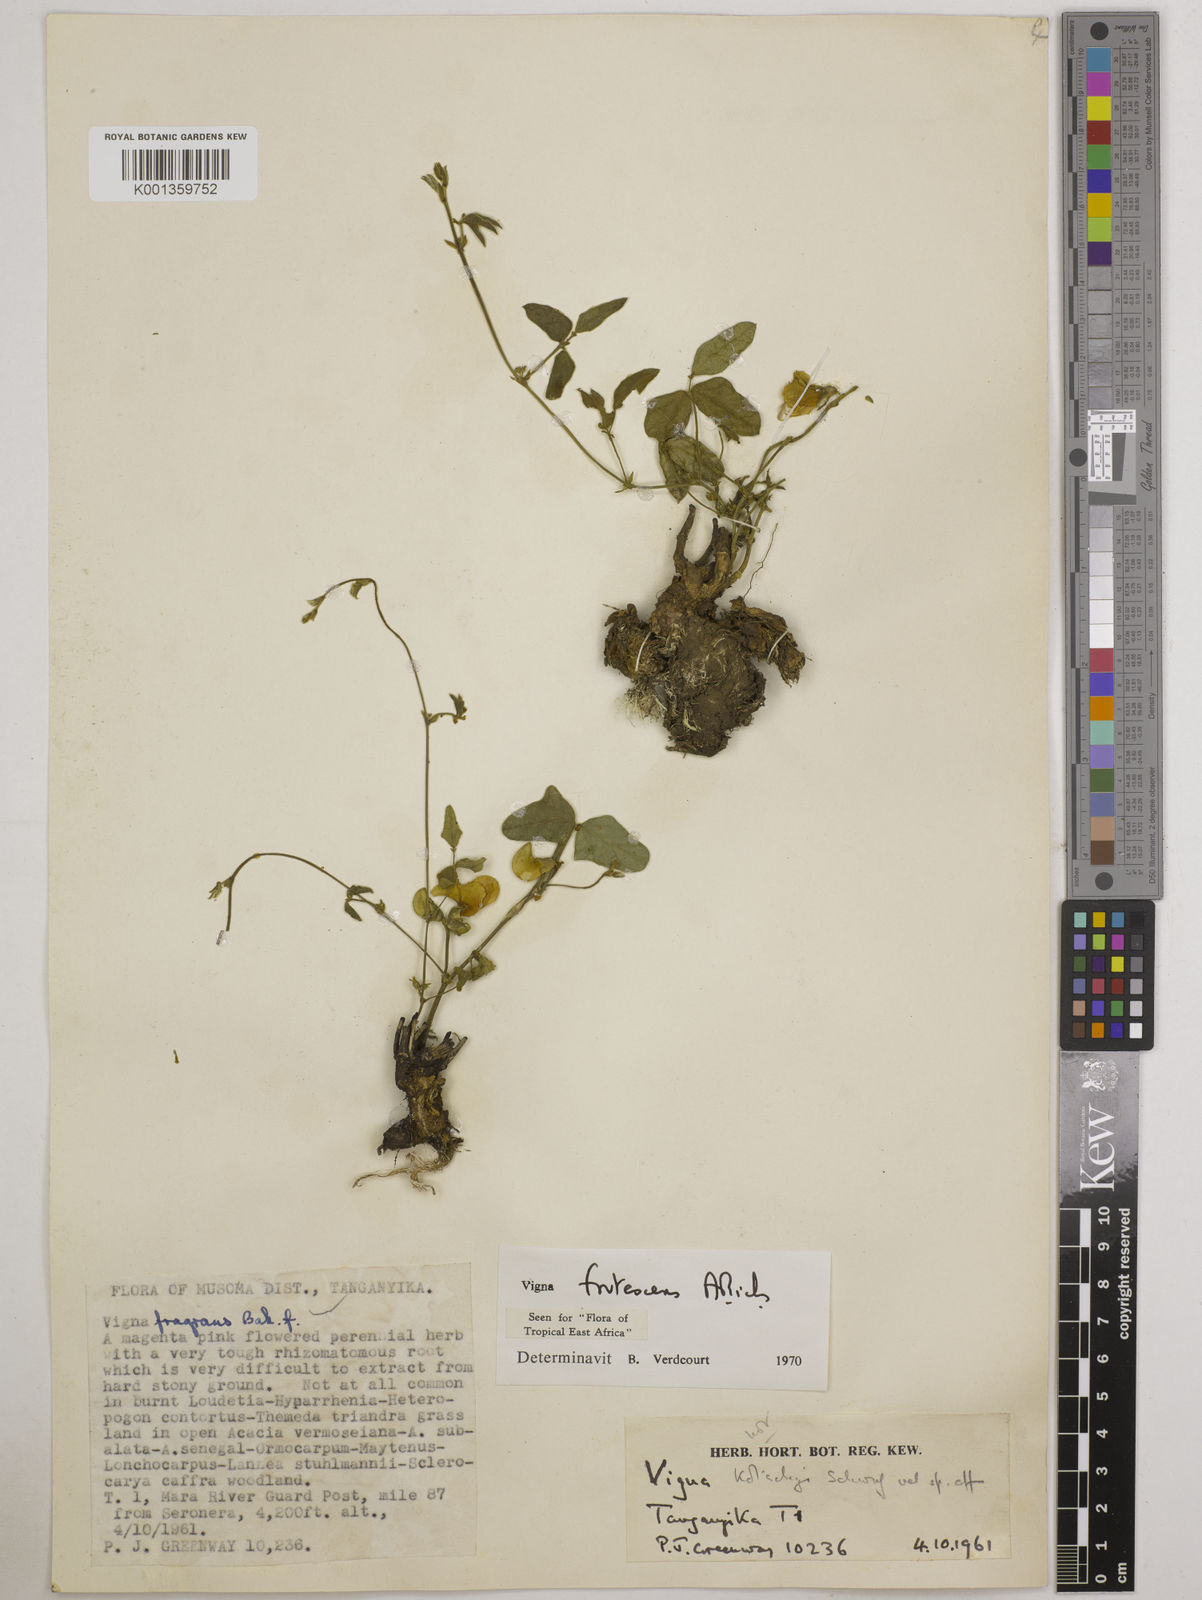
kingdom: Plantae
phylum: Tracheophyta
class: Magnoliopsida
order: Fabales
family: Fabaceae
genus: Vigna
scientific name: Vigna frutescens
